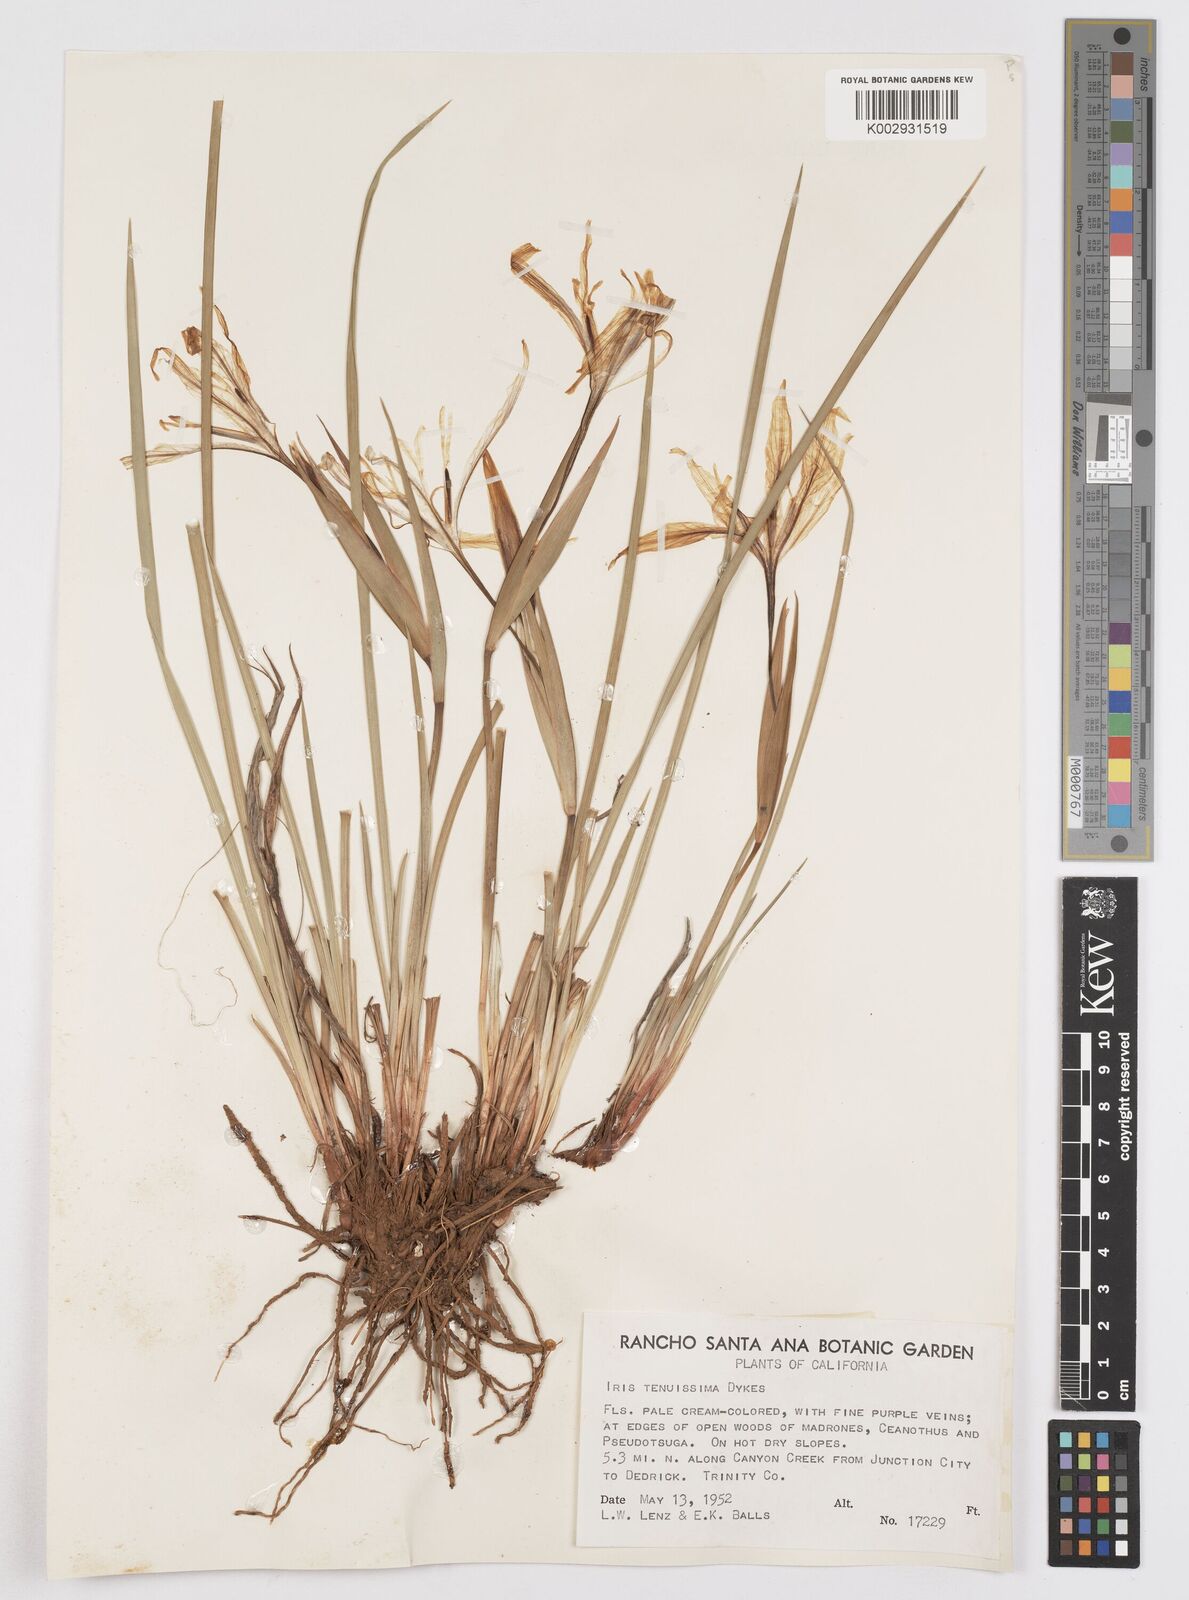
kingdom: Plantae
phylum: Tracheophyta
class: Liliopsida
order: Asparagales
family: Iridaceae
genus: Iris
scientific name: Iris tenuissima
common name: Long-tube iris
